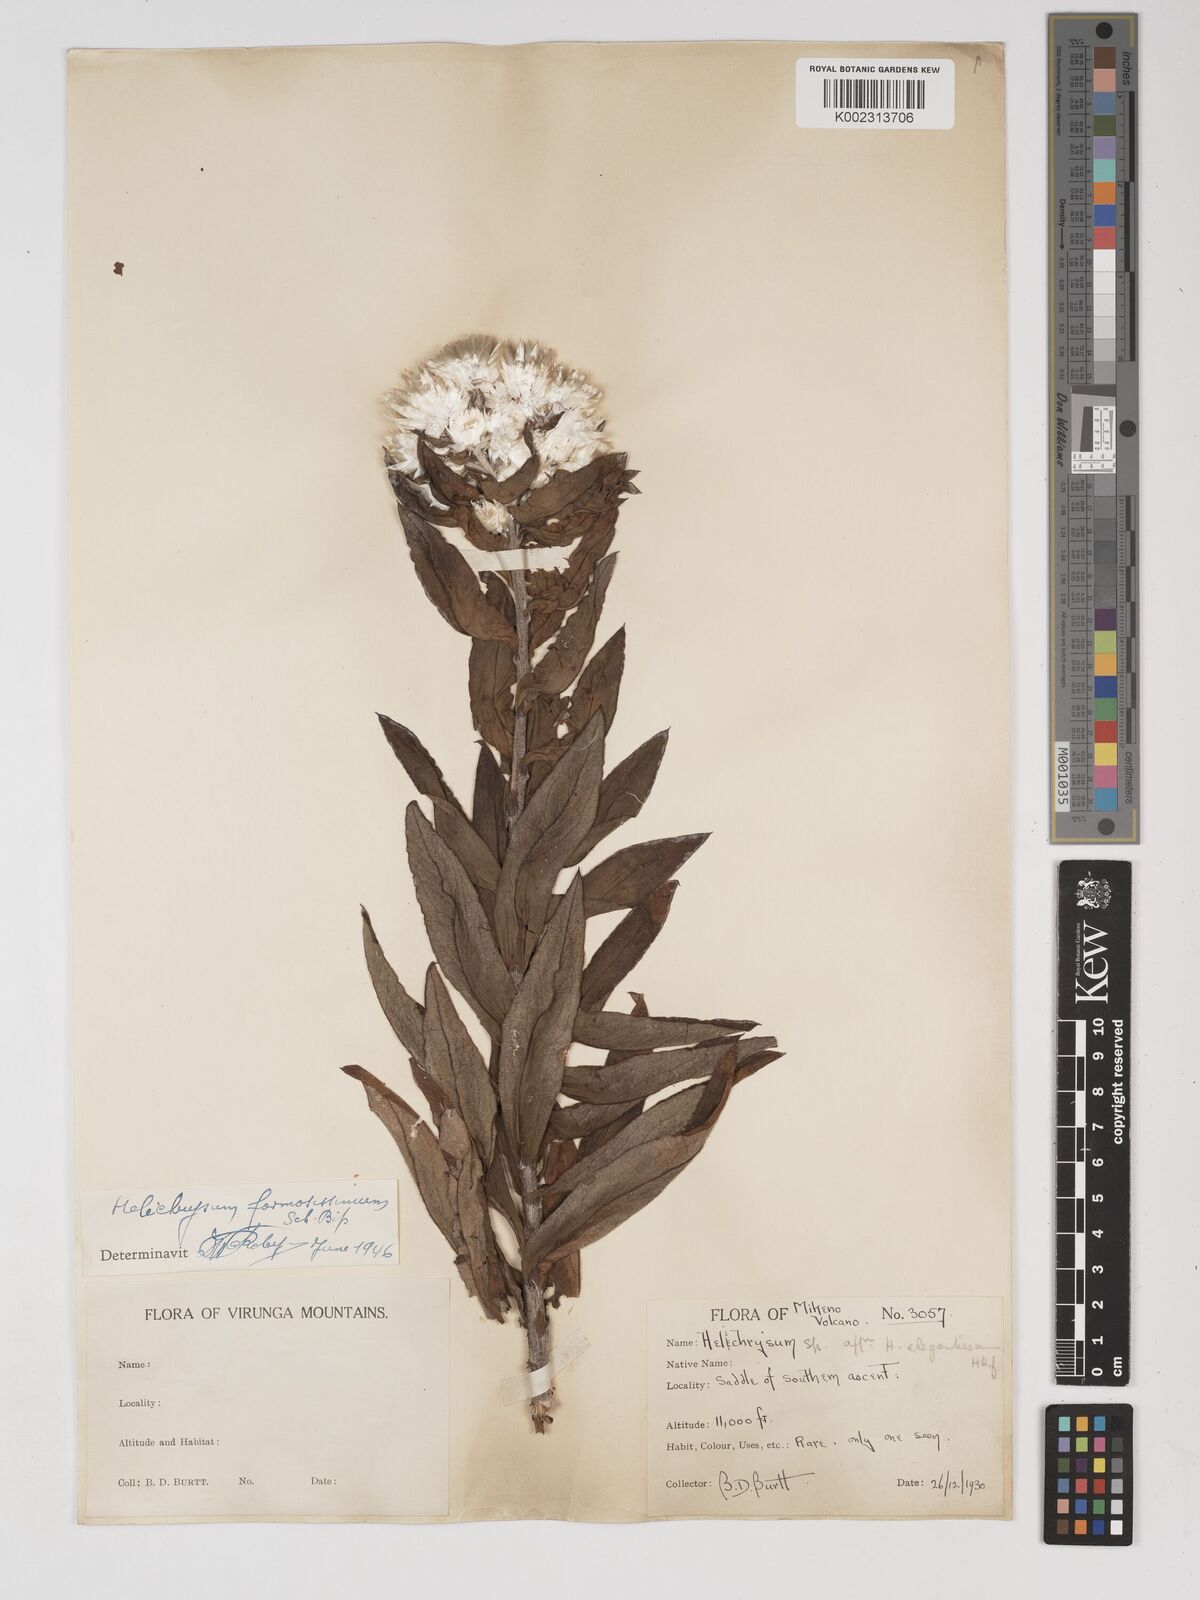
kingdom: Plantae
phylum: Tracheophyta
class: Magnoliopsida
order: Asterales
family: Asteraceae
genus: Helichrysum
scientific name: Helichrysum formosissimum
